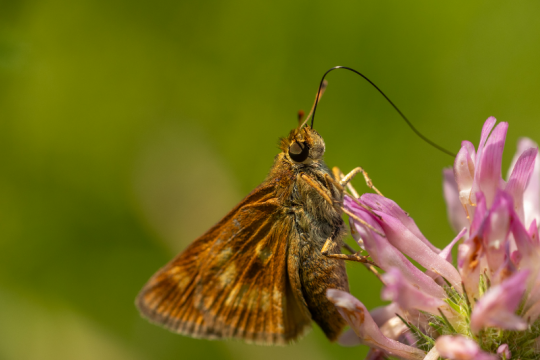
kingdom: Animalia
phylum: Arthropoda
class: Insecta
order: Lepidoptera
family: Hesperiidae
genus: Polites
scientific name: Polites
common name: Long Dash Skipper
